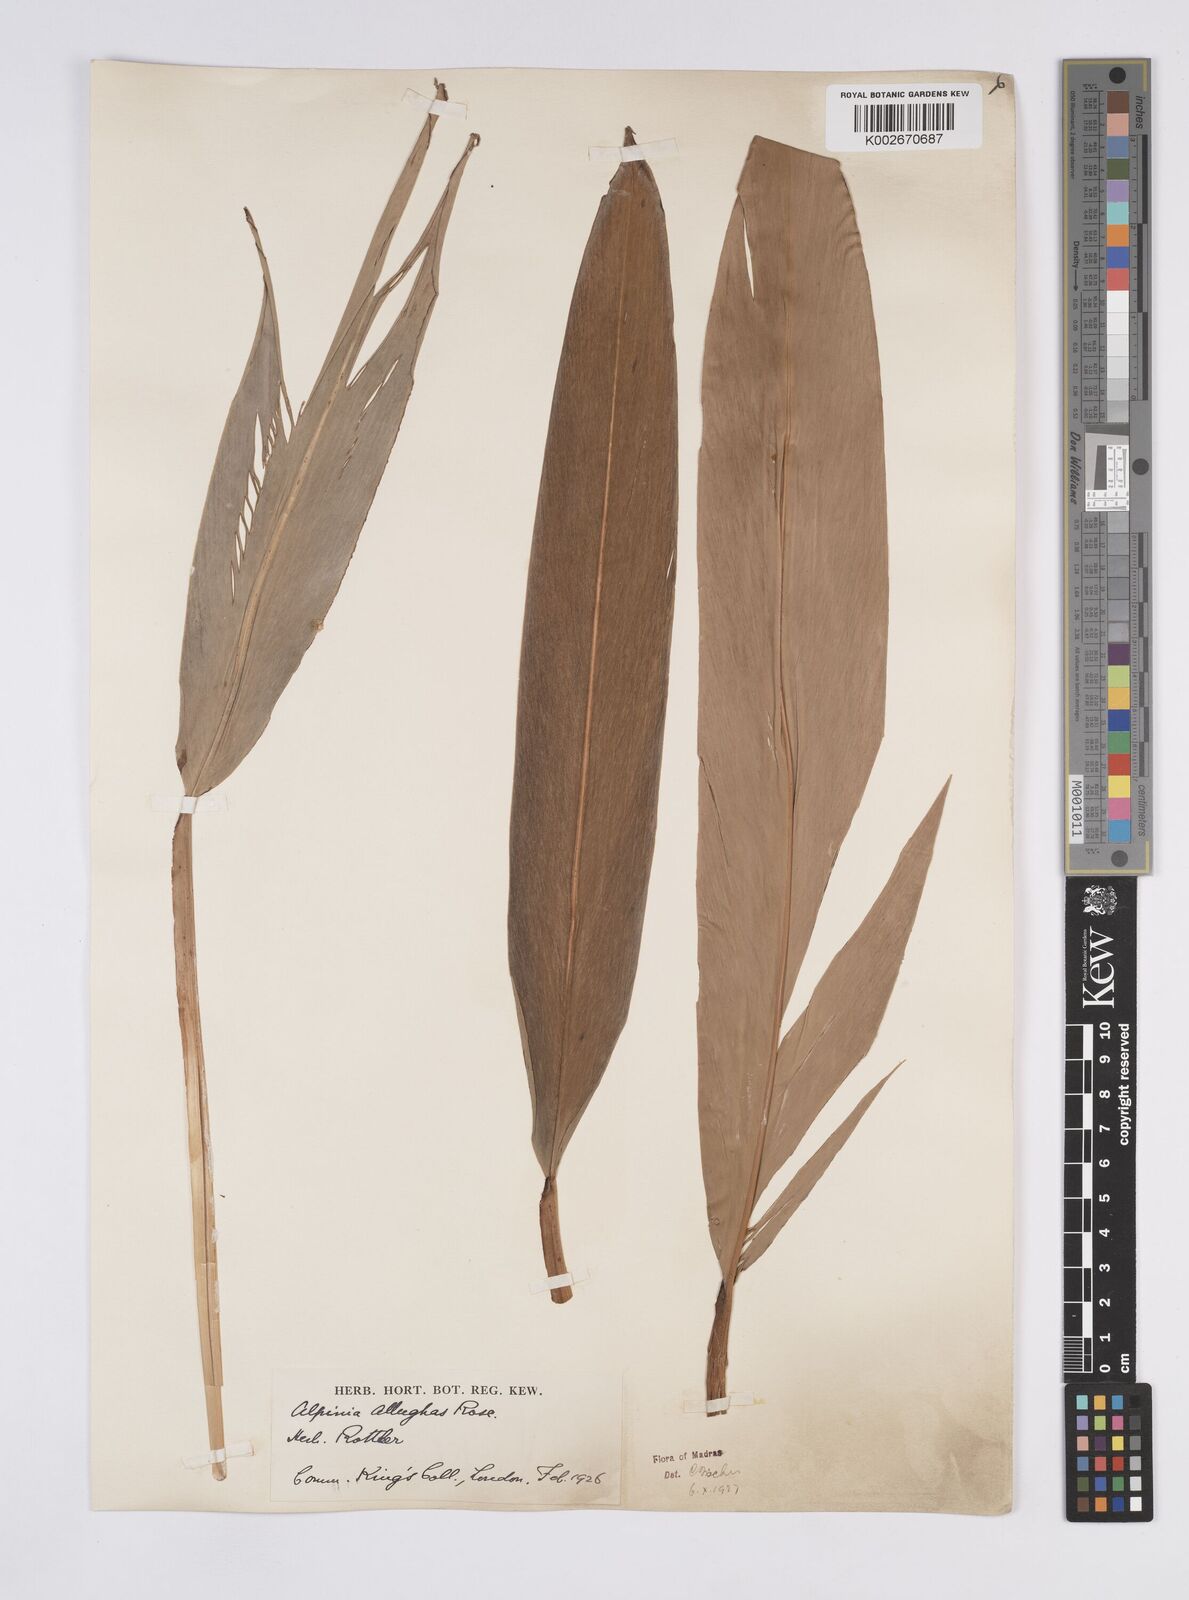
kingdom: Plantae
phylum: Tracheophyta
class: Liliopsida
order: Zingiberales
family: Zingiberaceae
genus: Alpinia
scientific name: Alpinia nigra
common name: Black fruited galanga
